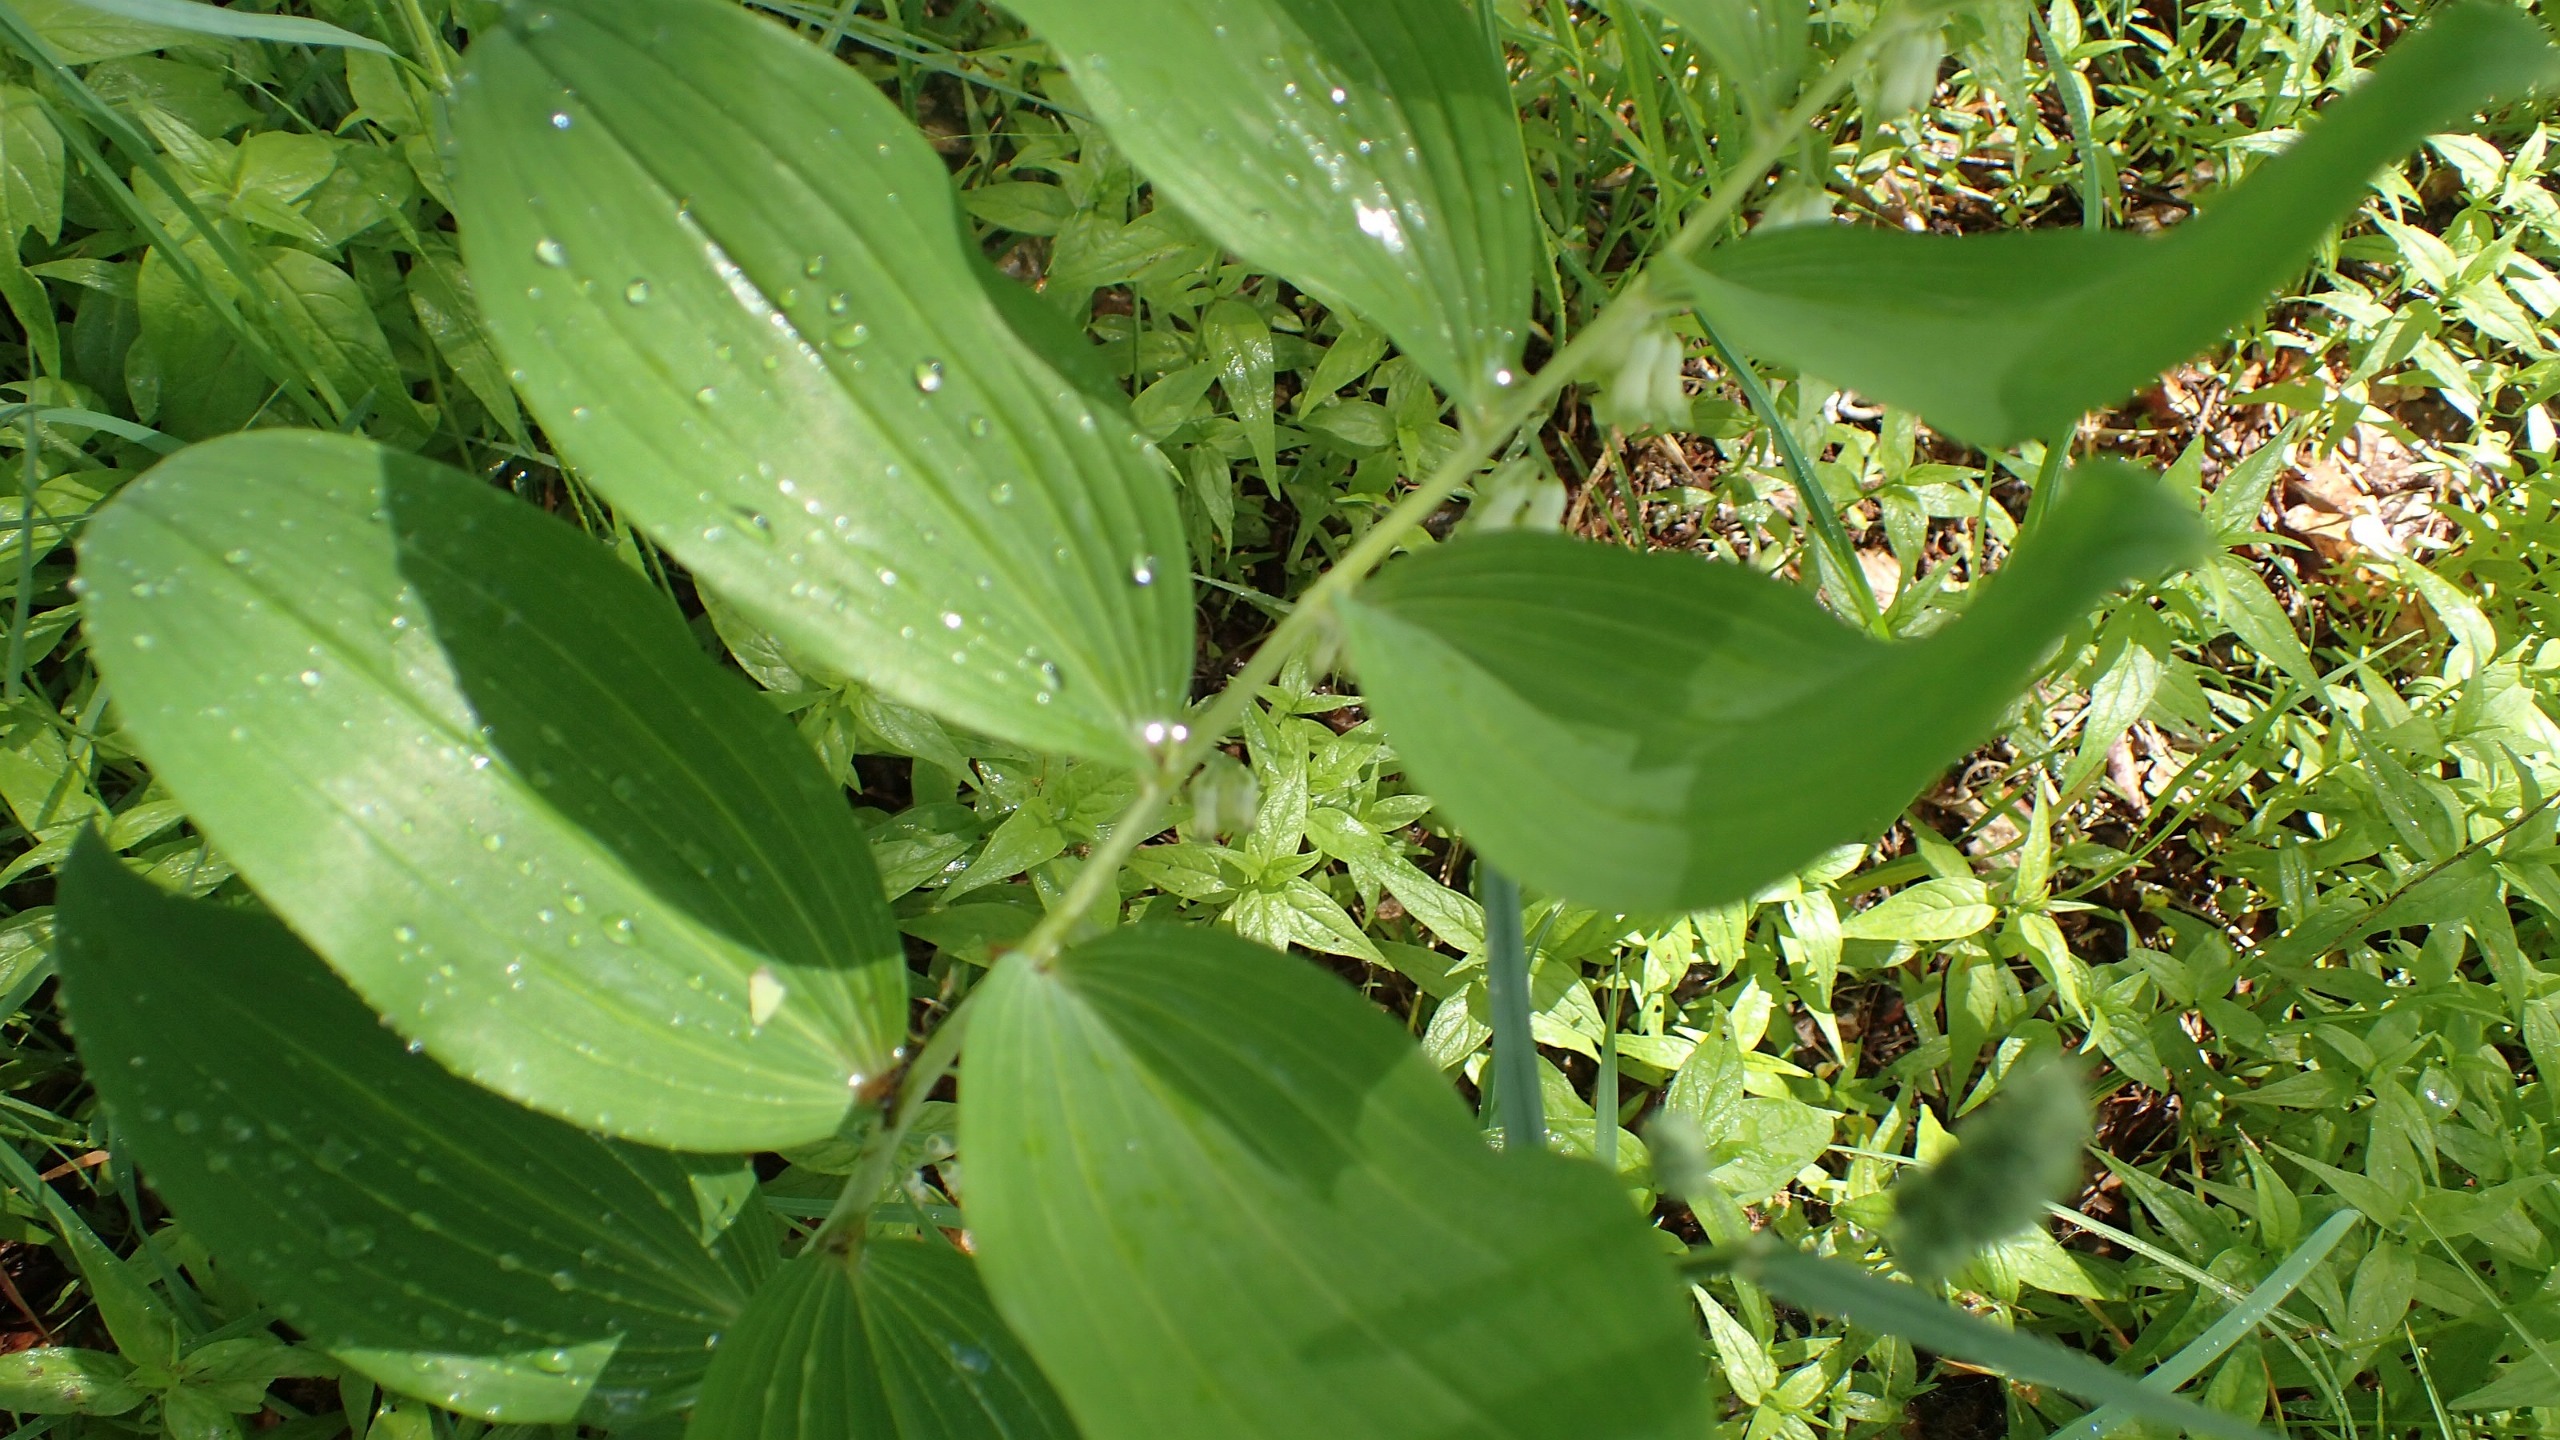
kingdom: Plantae
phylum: Tracheophyta
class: Liliopsida
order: Asparagales
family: Asparagaceae
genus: Polygonatum
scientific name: Polygonatum multiflorum
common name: Stor konval
